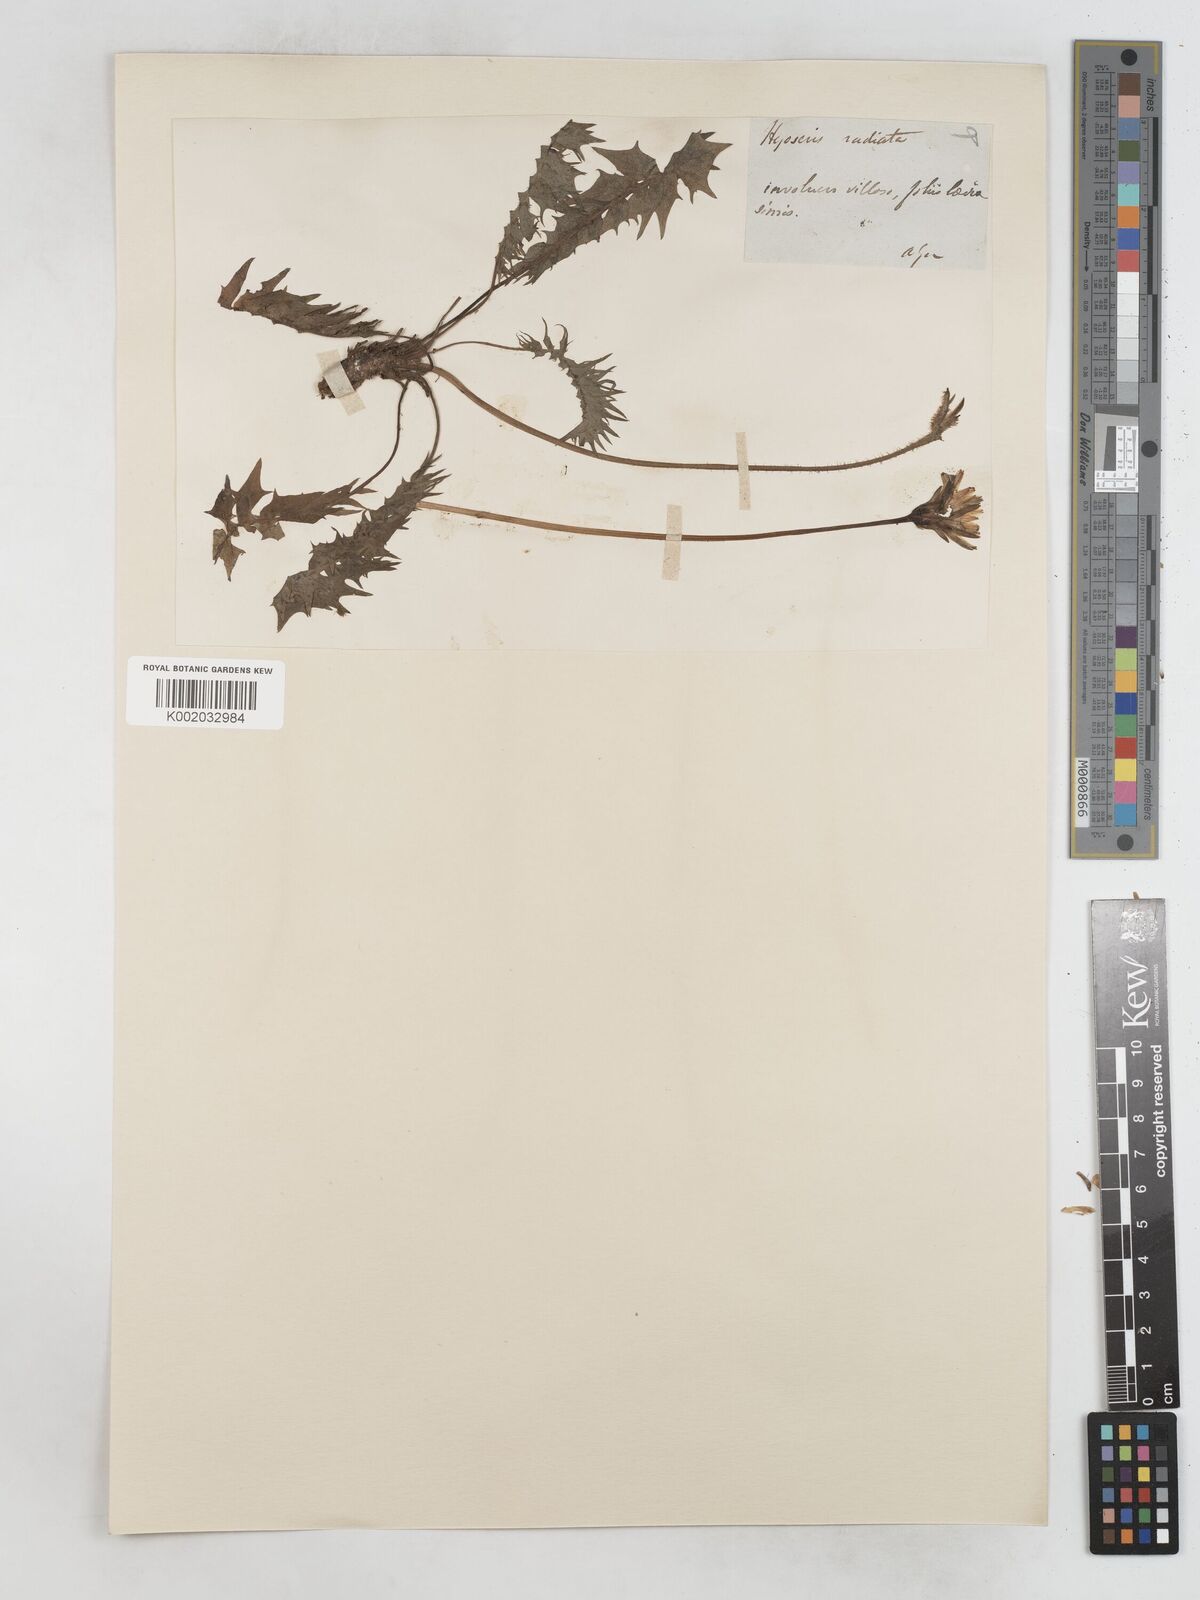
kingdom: Plantae
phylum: Tracheophyta
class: Magnoliopsida
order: Asterales
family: Asteraceae
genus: Hyoseris
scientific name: Hyoseris radiata
